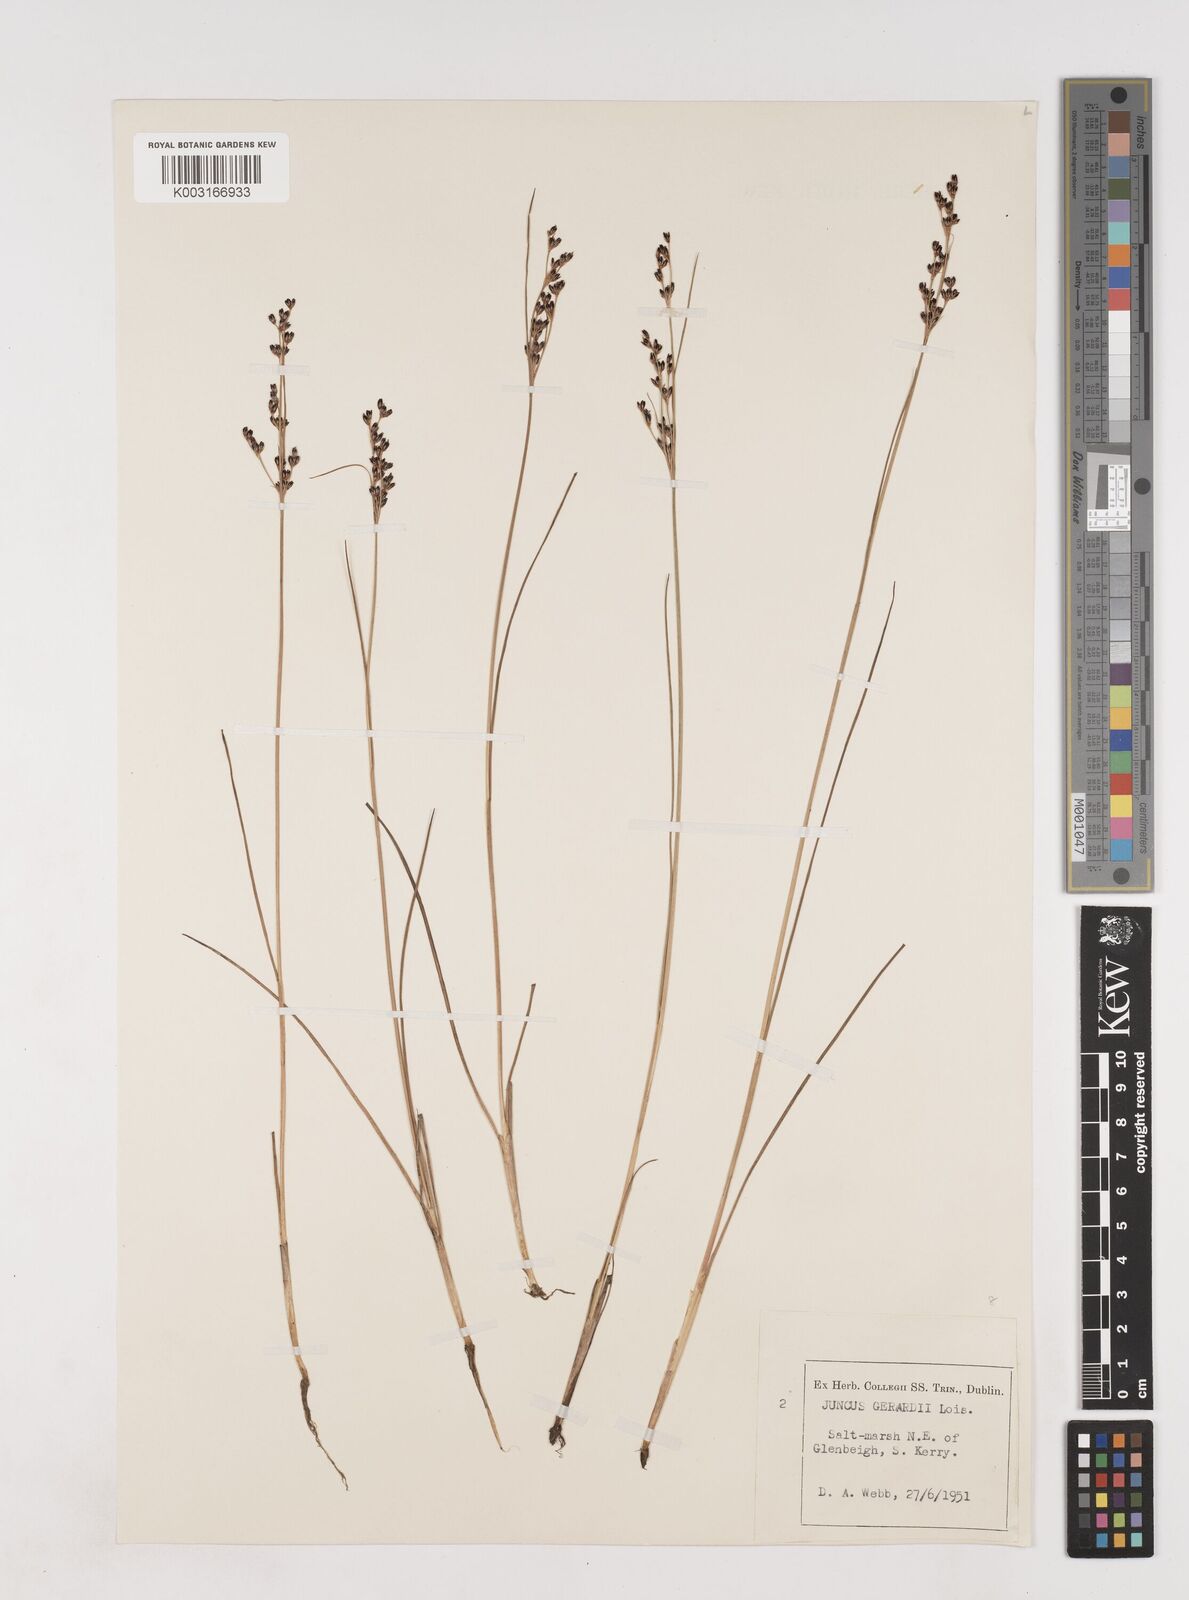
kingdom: Plantae
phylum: Tracheophyta
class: Liliopsida
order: Poales
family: Juncaceae
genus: Juncus
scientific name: Juncus gerardi
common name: Saltmarsh rush
